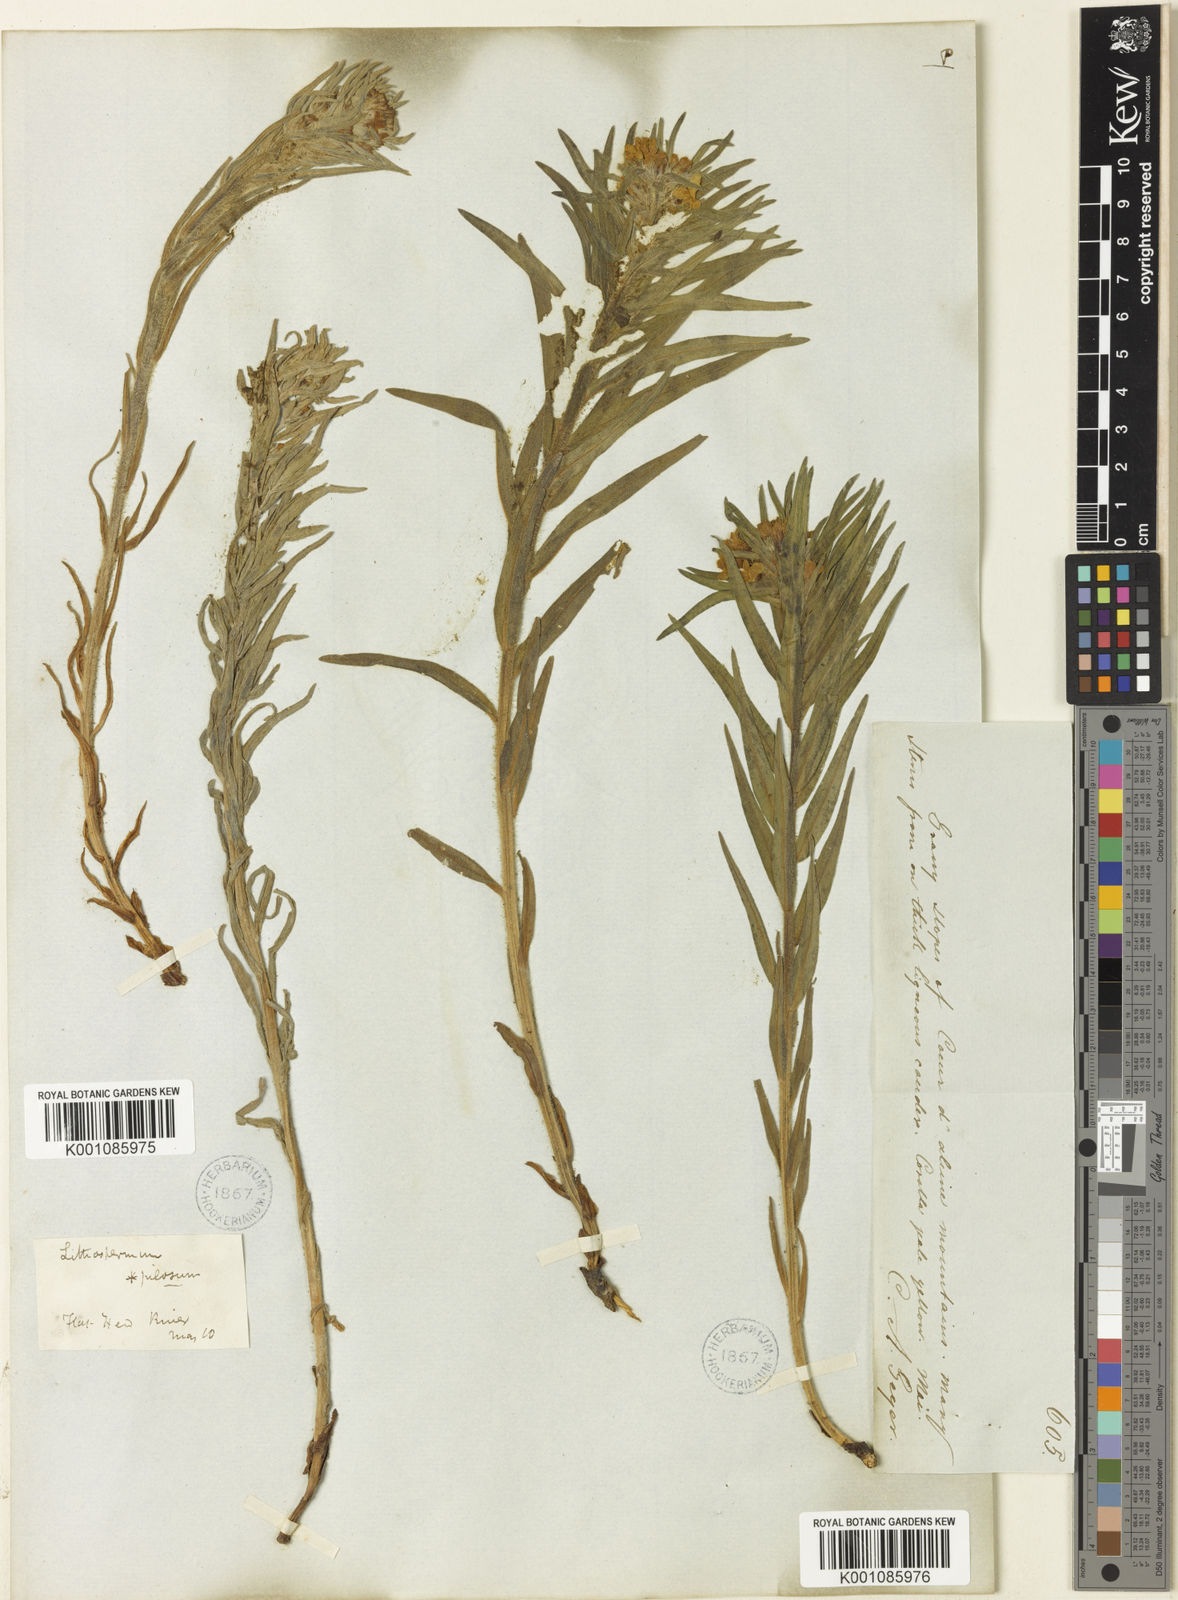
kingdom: Plantae
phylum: Tracheophyta
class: Magnoliopsida
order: Boraginales
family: Boraginaceae
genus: Lithospermum
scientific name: Lithospermum ruderale
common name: Western gromwell
